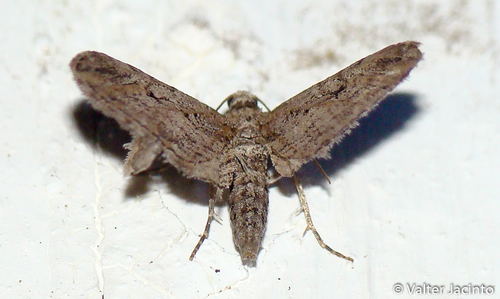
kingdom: Animalia
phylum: Arthropoda
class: Insecta
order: Lepidoptera
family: Geometridae
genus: Eupithecia
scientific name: Eupithecia oxycedrata
